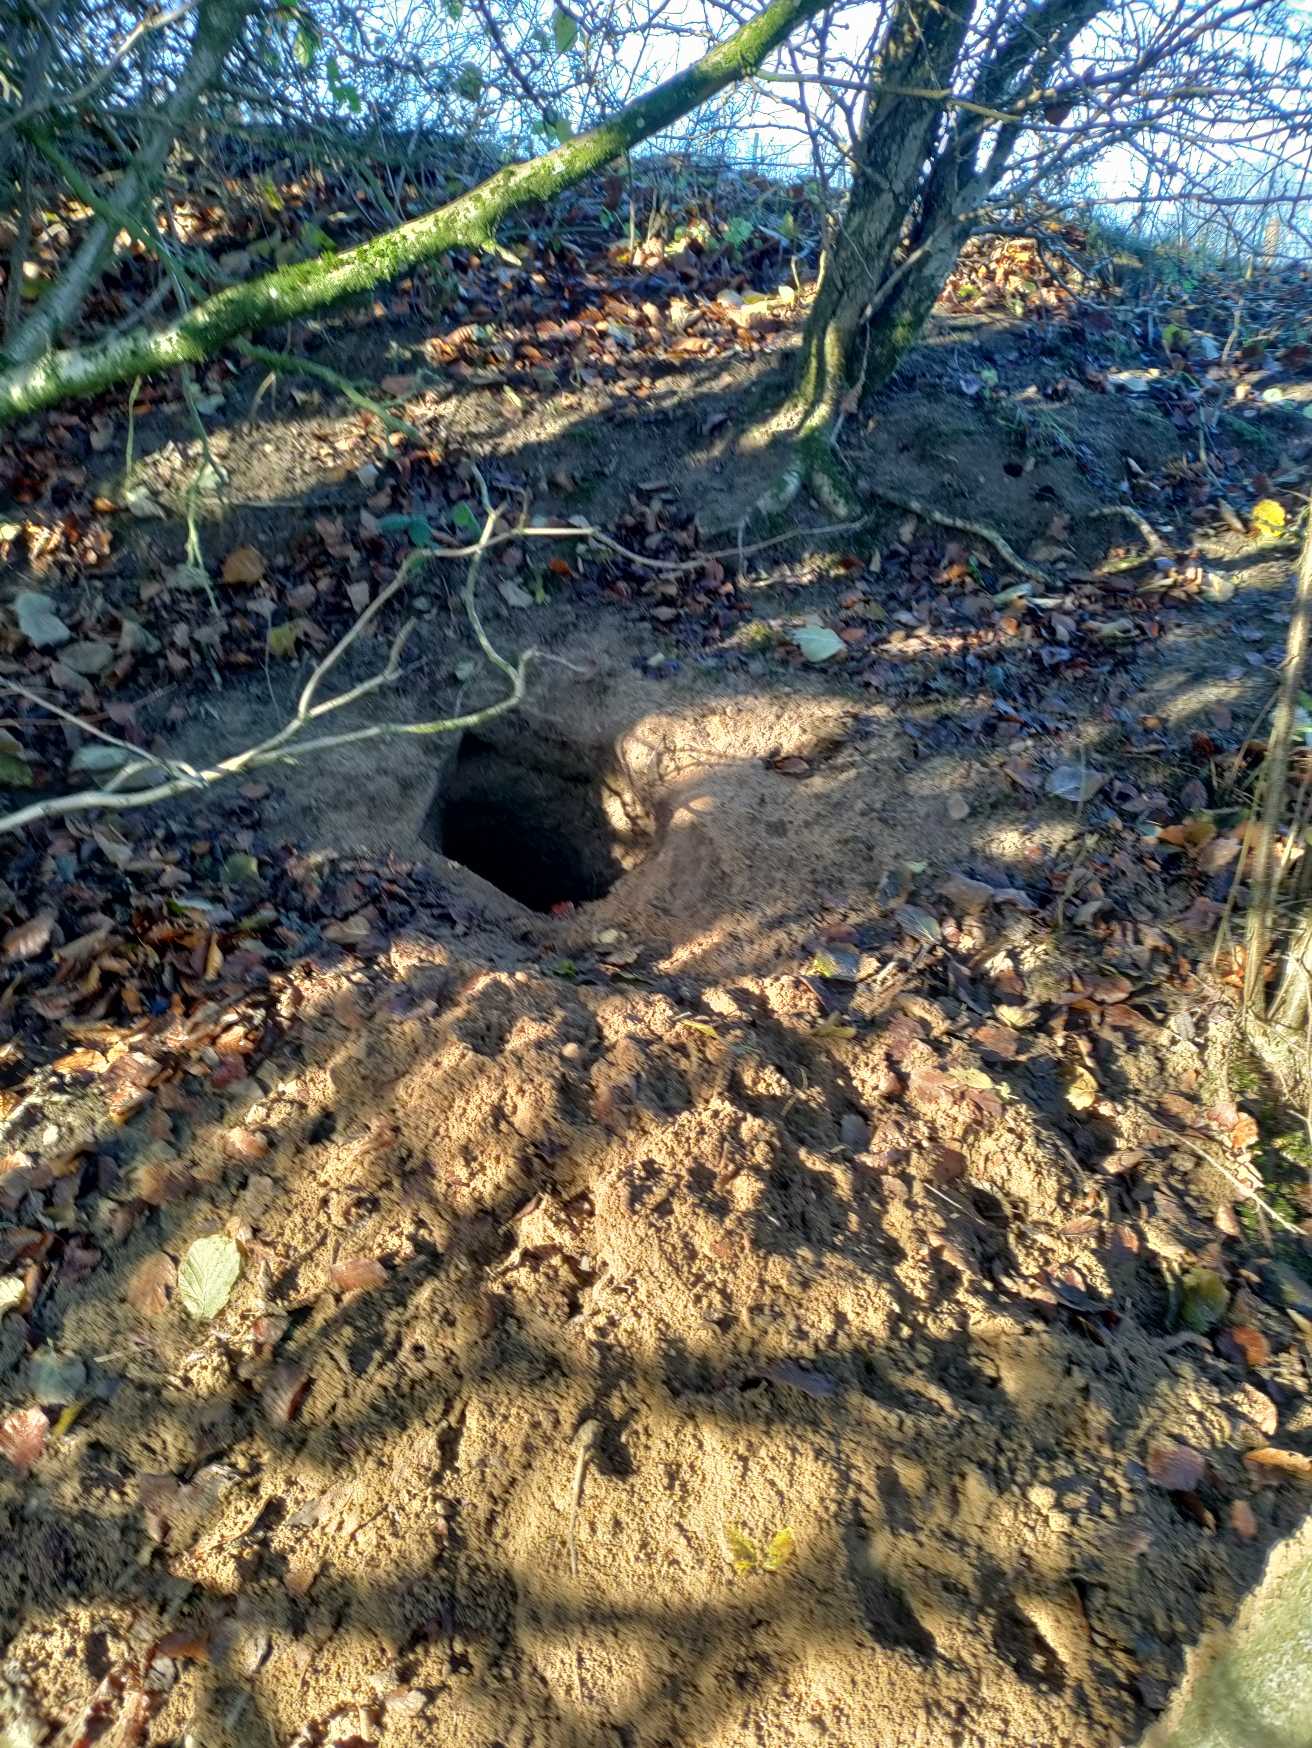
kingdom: Animalia
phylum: Chordata
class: Mammalia
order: Carnivora
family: Canidae
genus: Vulpes
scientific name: Vulpes vulpes
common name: Ræv
